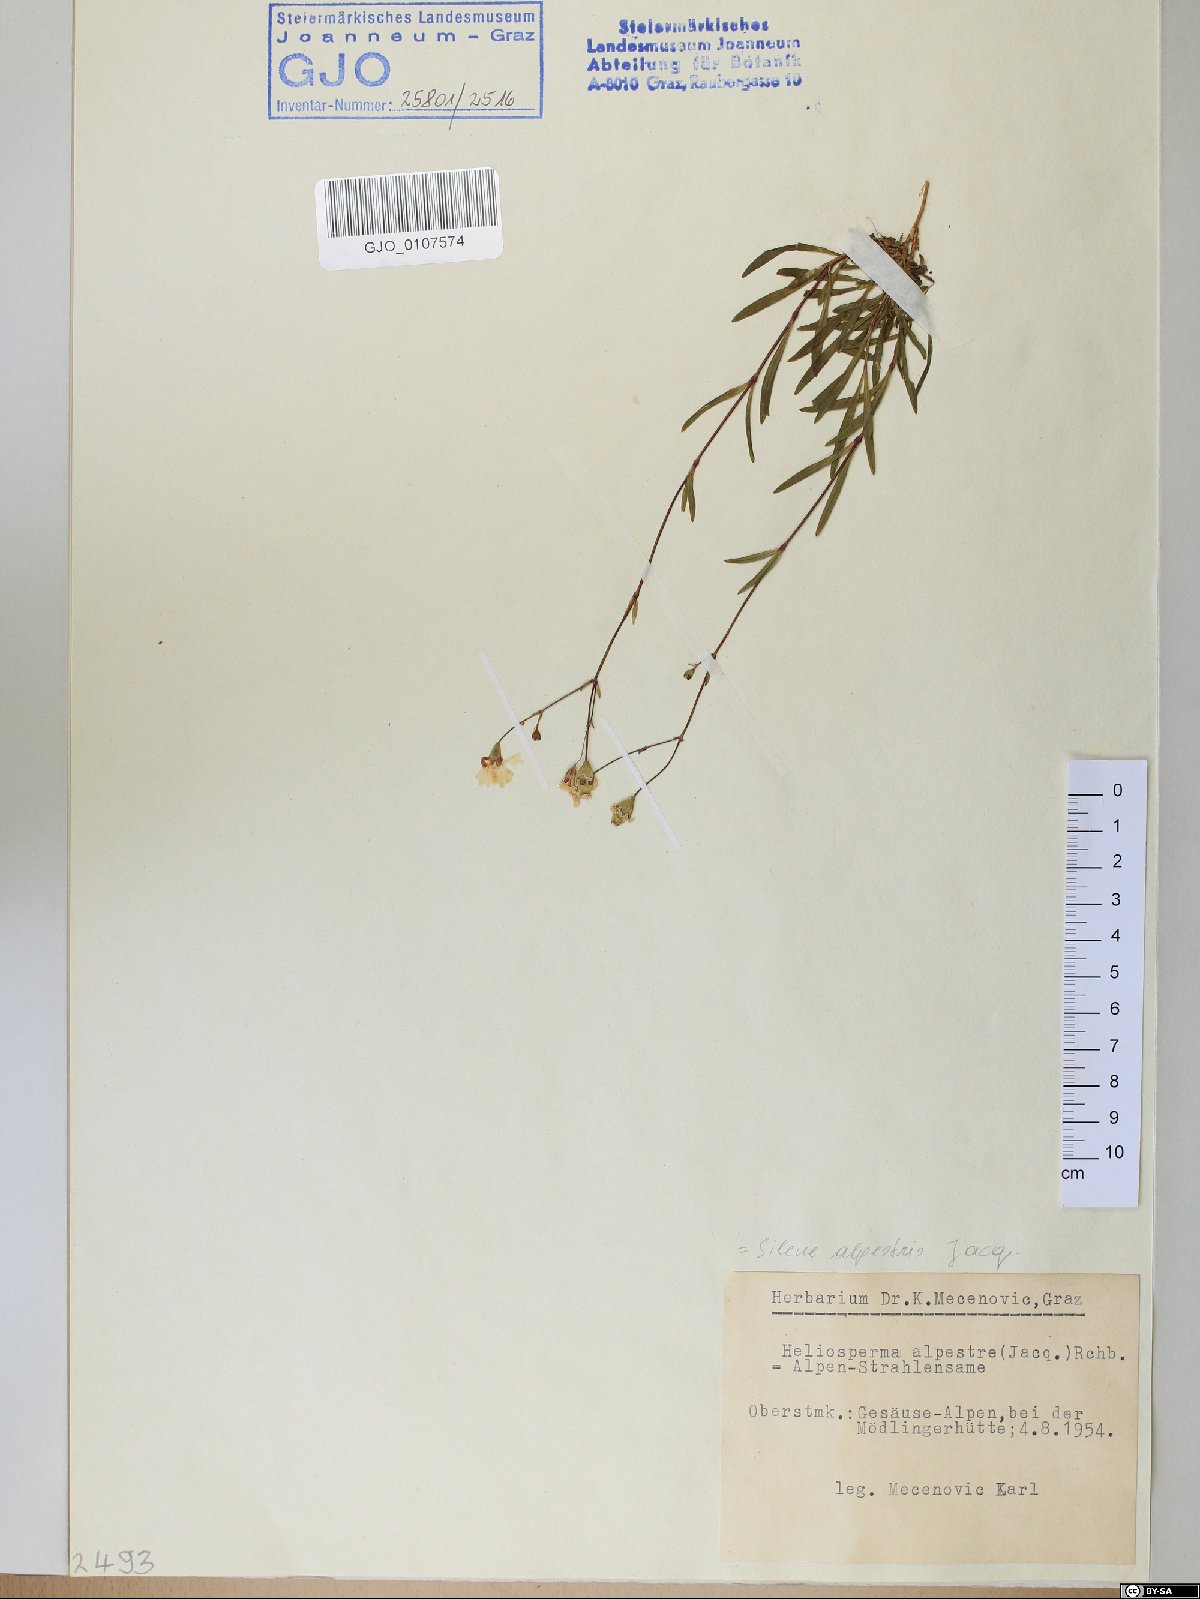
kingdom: Plantae
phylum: Tracheophyta
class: Magnoliopsida
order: Caryophyllales
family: Caryophyllaceae
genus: Heliosperma
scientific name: Heliosperma alpestre
